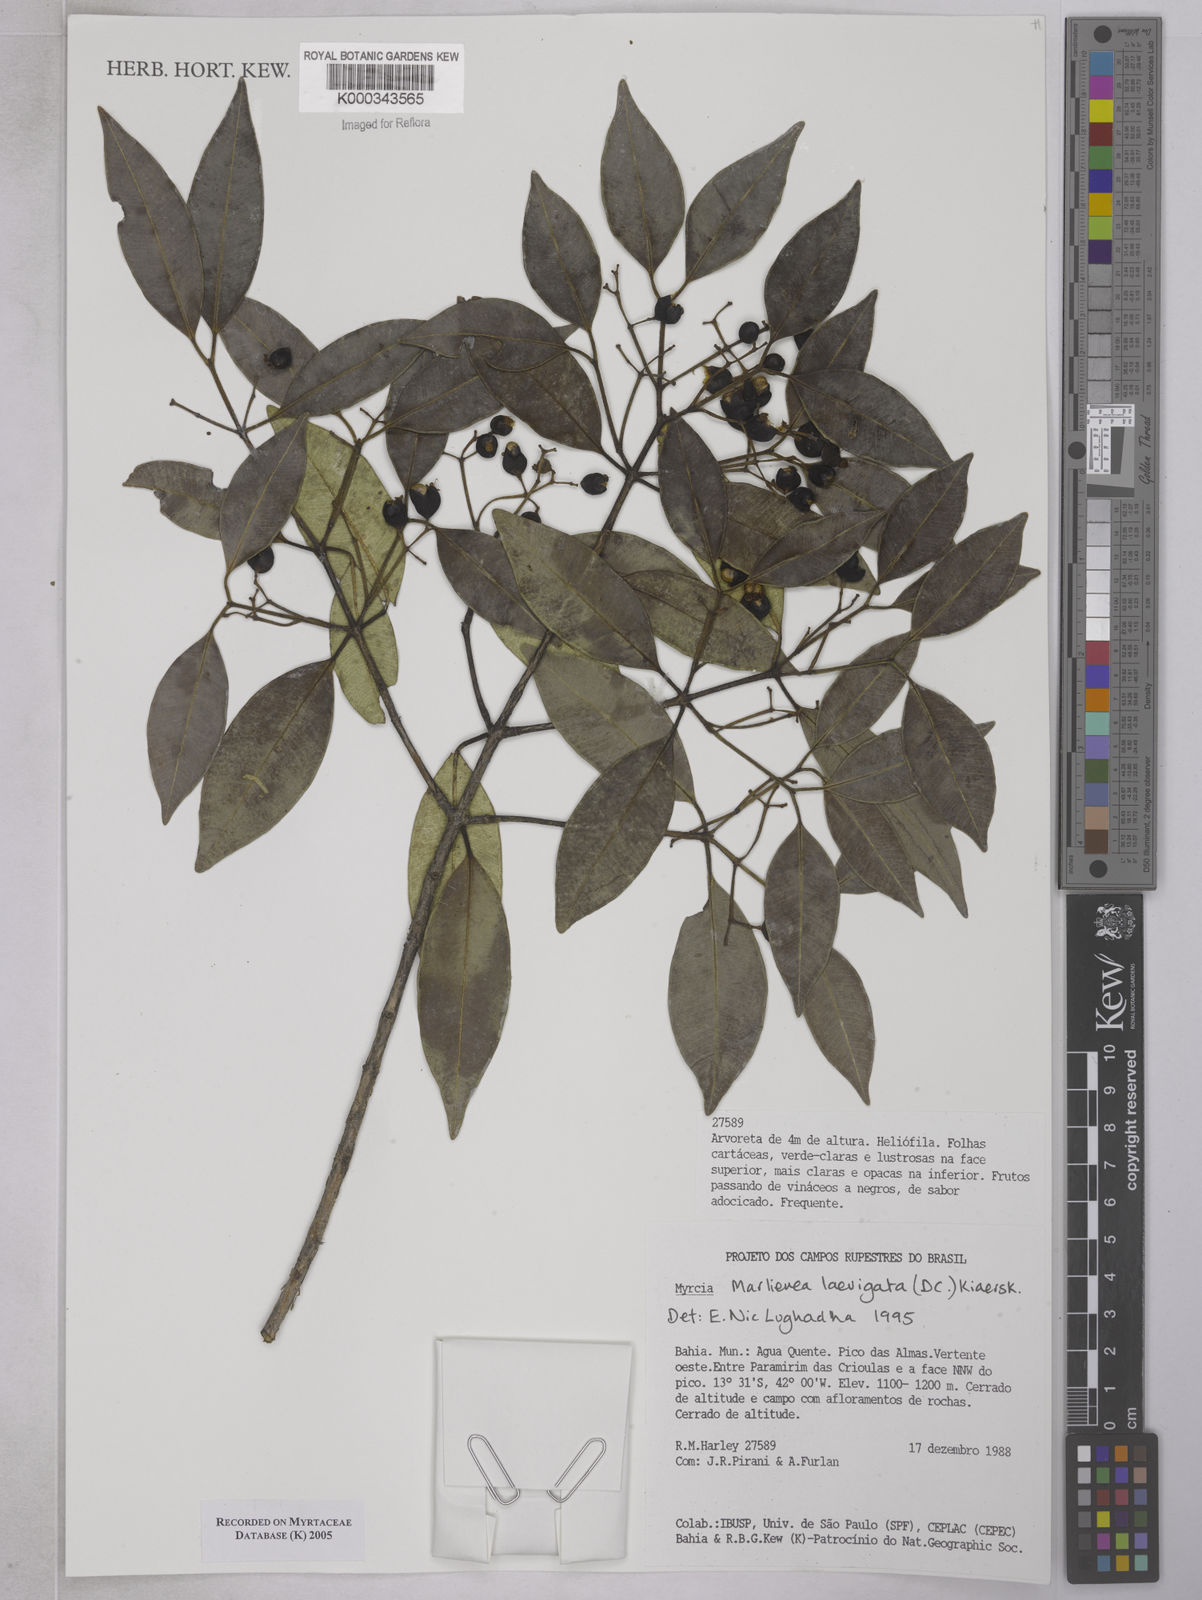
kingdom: Plantae
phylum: Tracheophyta
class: Magnoliopsida
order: Myrtales
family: Myrtaceae
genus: Myrcia
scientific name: Myrcia multipunctata
